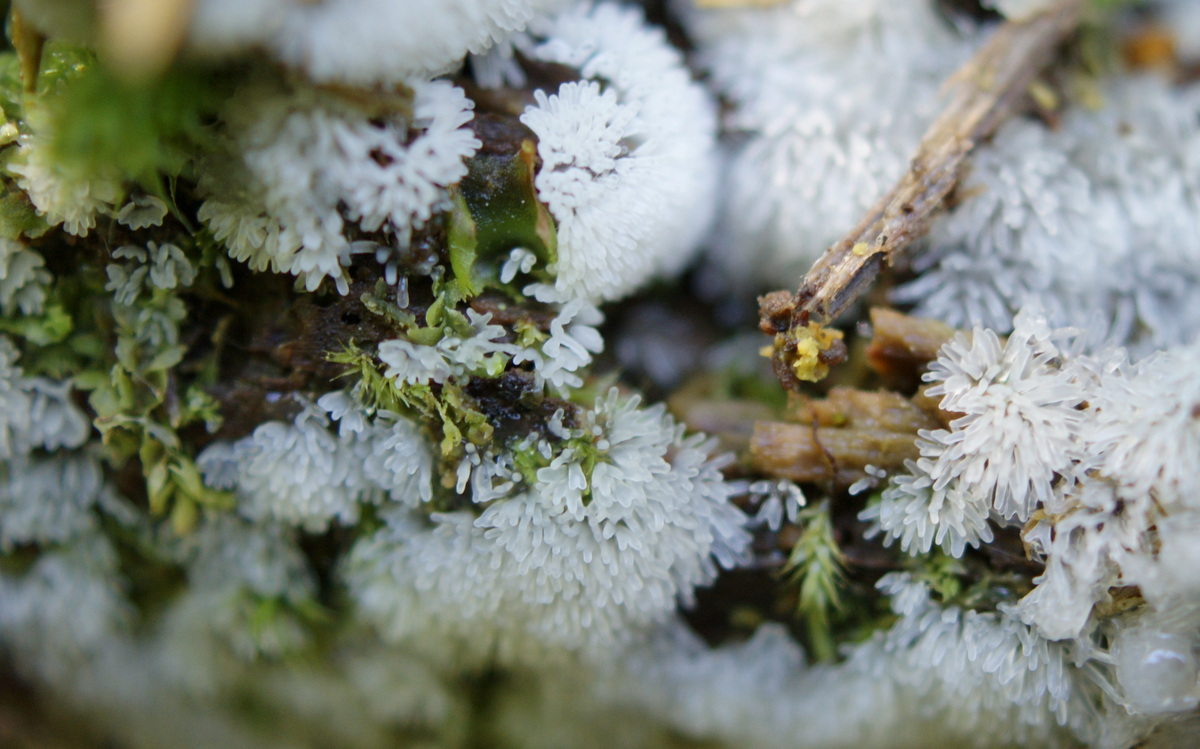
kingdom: Protozoa
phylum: Mycetozoa
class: Protosteliomycetes
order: Ceratiomyxales
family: Ceratiomyxaceae
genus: Ceratiomyxa
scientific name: Ceratiomyxa fruticulosa
